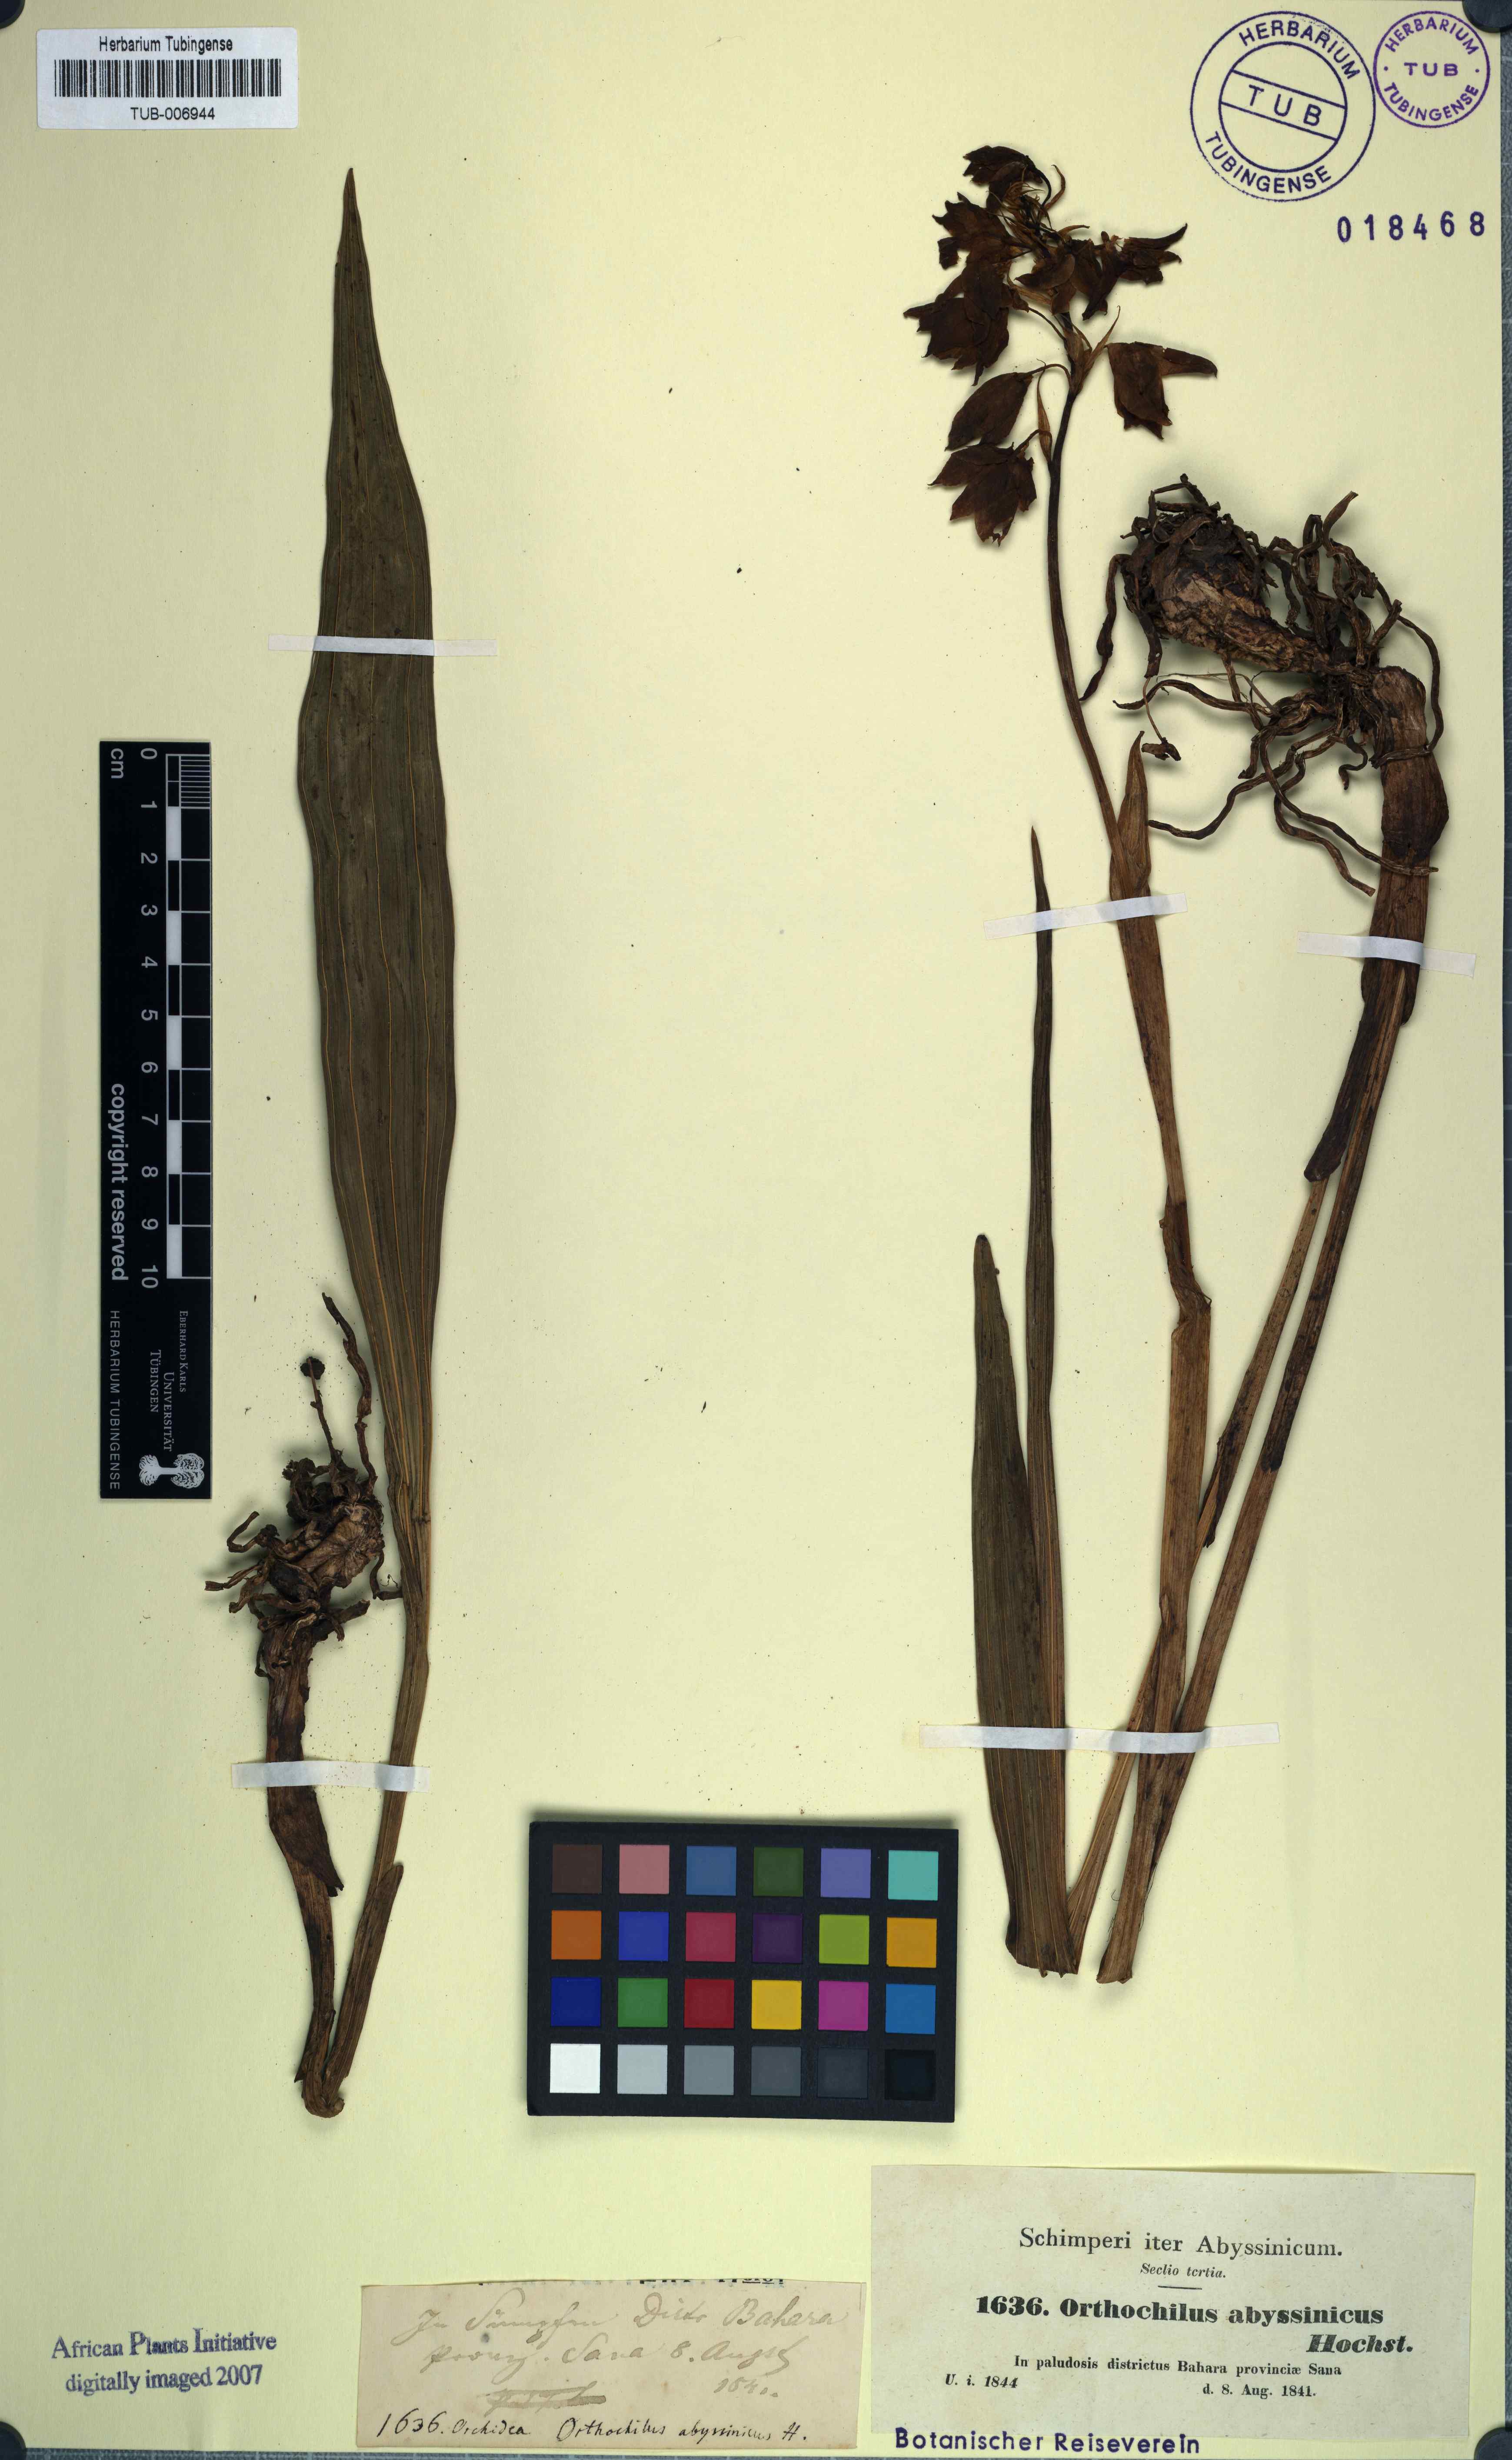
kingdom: Plantae
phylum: Tracheophyta
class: Liliopsida
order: Asparagales
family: Orchidaceae
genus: Eulophia
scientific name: Eulophia abyssinica
